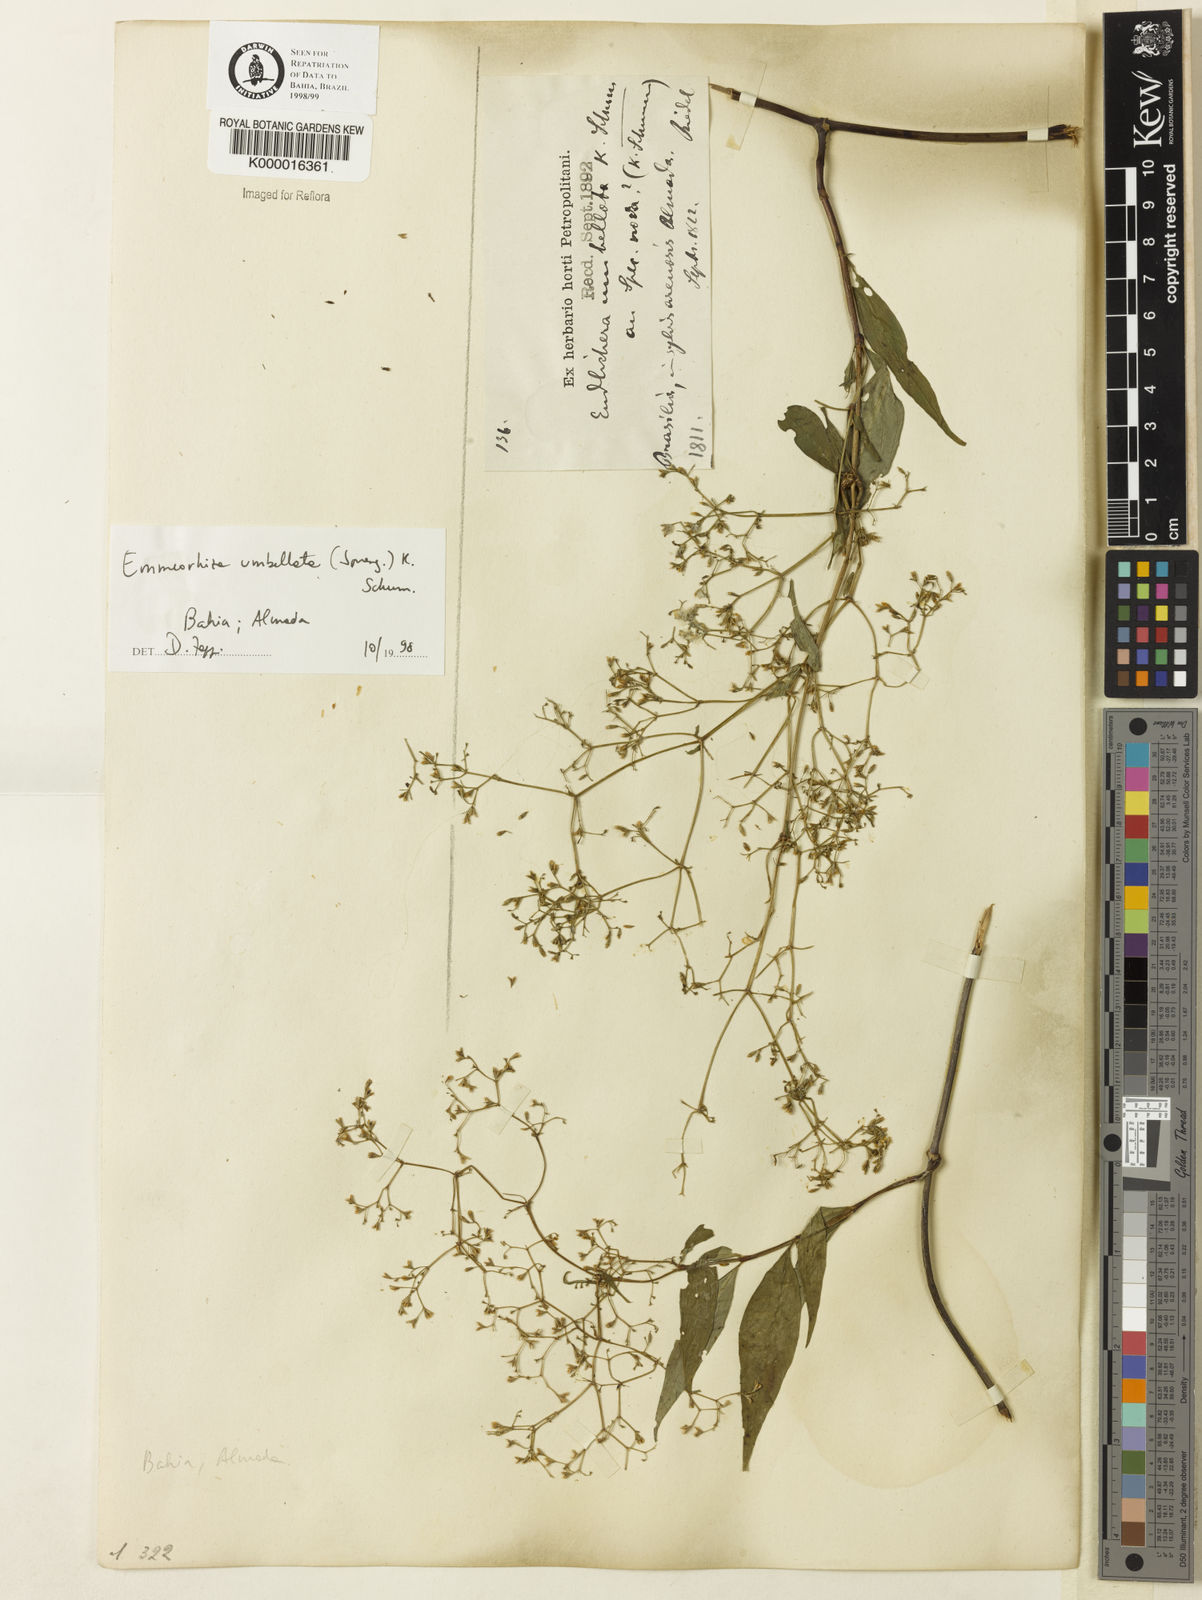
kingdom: Plantae
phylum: Tracheophyta
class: Magnoliopsida
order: Gentianales
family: Rubiaceae
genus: Emmeorhiza
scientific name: Emmeorhiza umbellata
